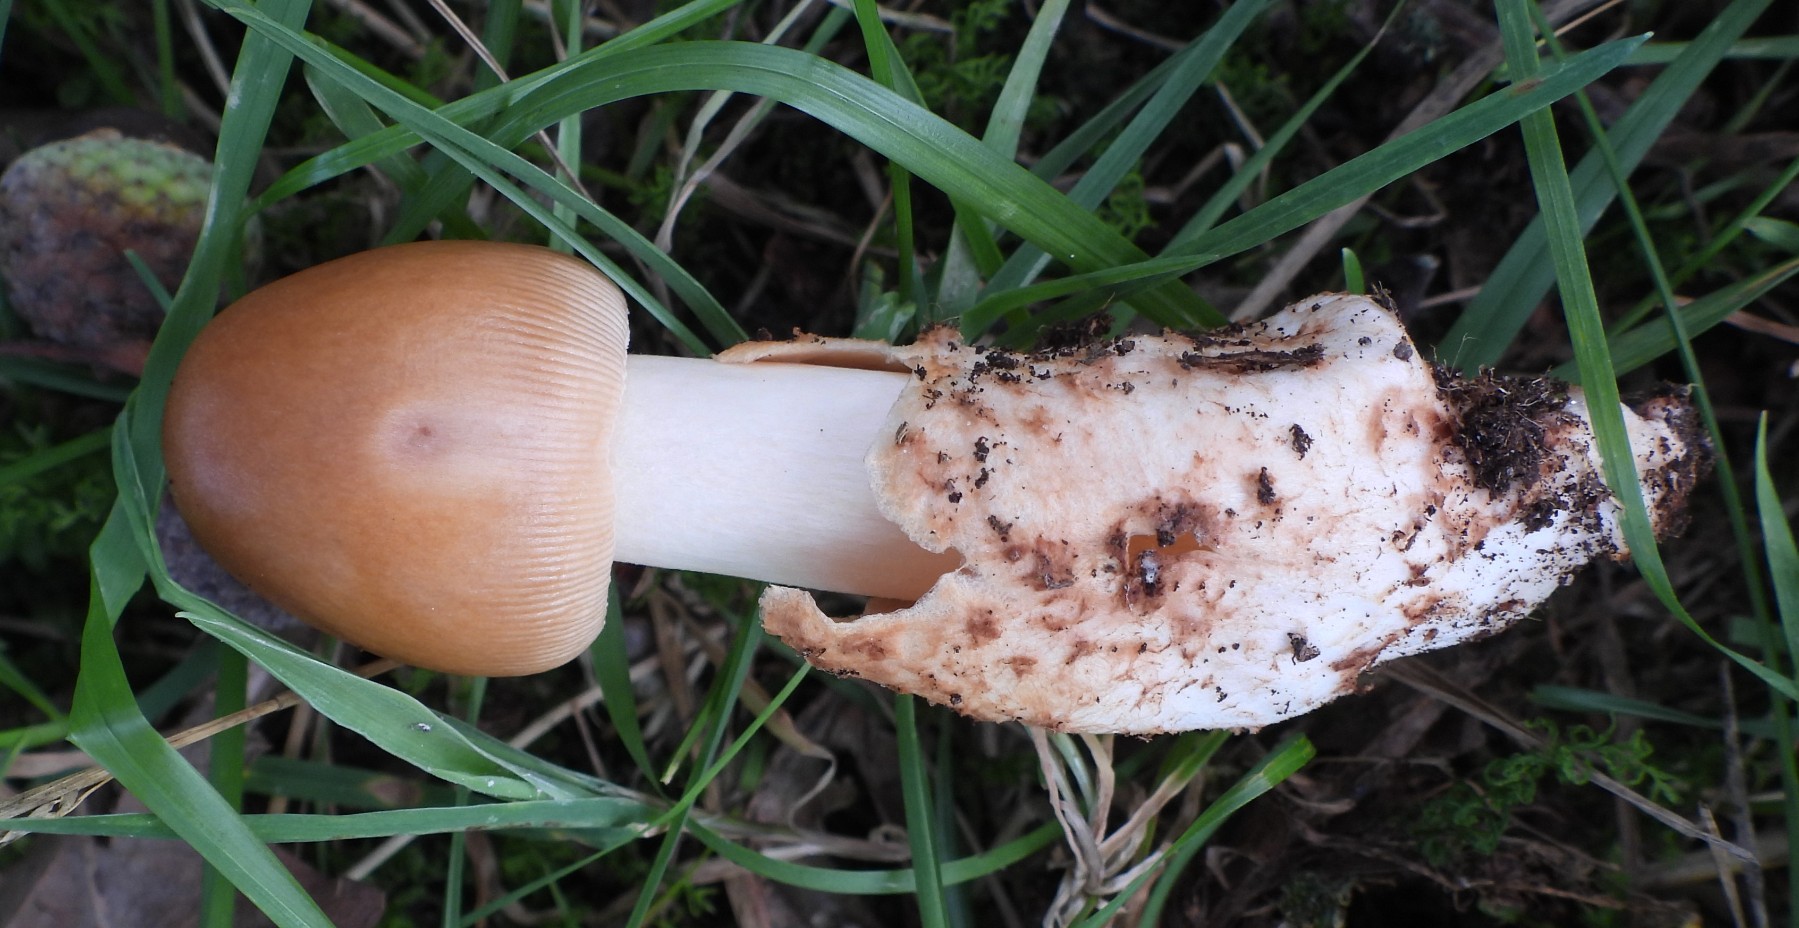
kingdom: Fungi
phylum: Basidiomycota
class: Agaricomycetes
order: Agaricales
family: Amanitaceae
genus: Amanita
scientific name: Amanita fulva
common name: brun kam-fluesvamp
